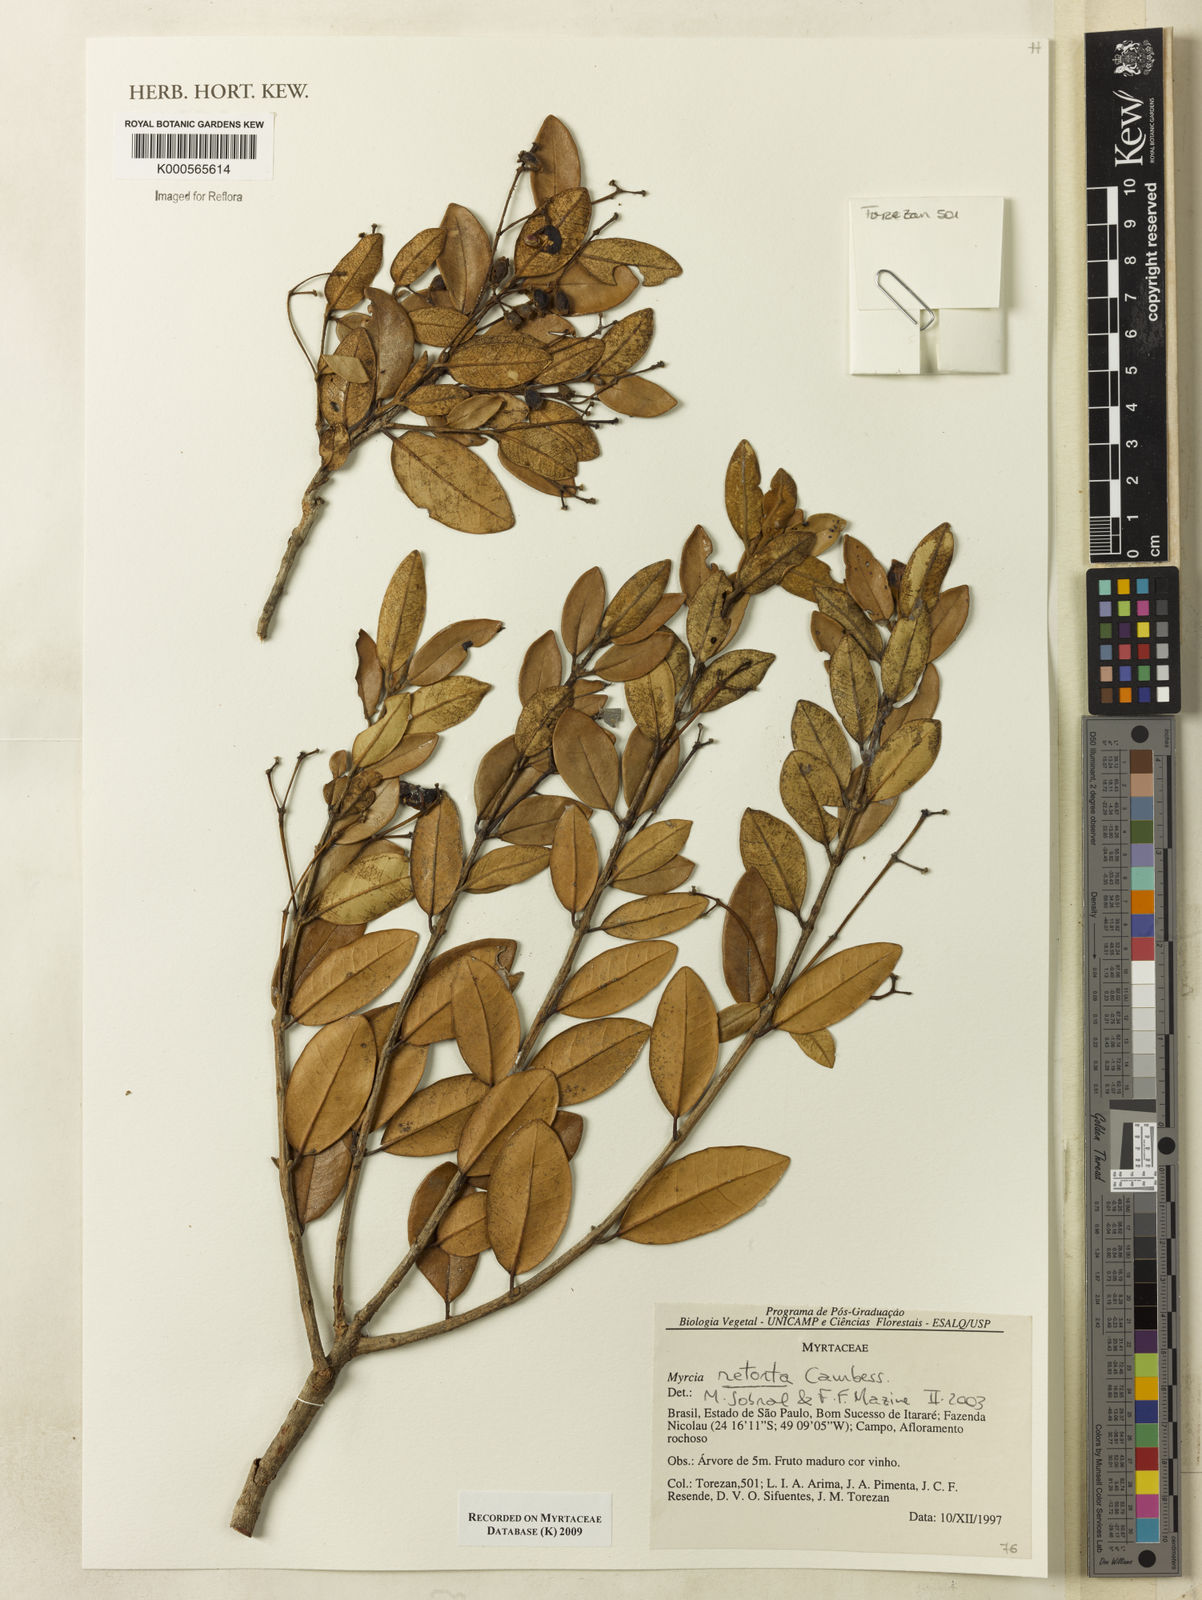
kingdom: Plantae
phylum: Tracheophyta
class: Magnoliopsida
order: Myrtales
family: Myrtaceae
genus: Myrcia
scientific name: Myrcia retorta
